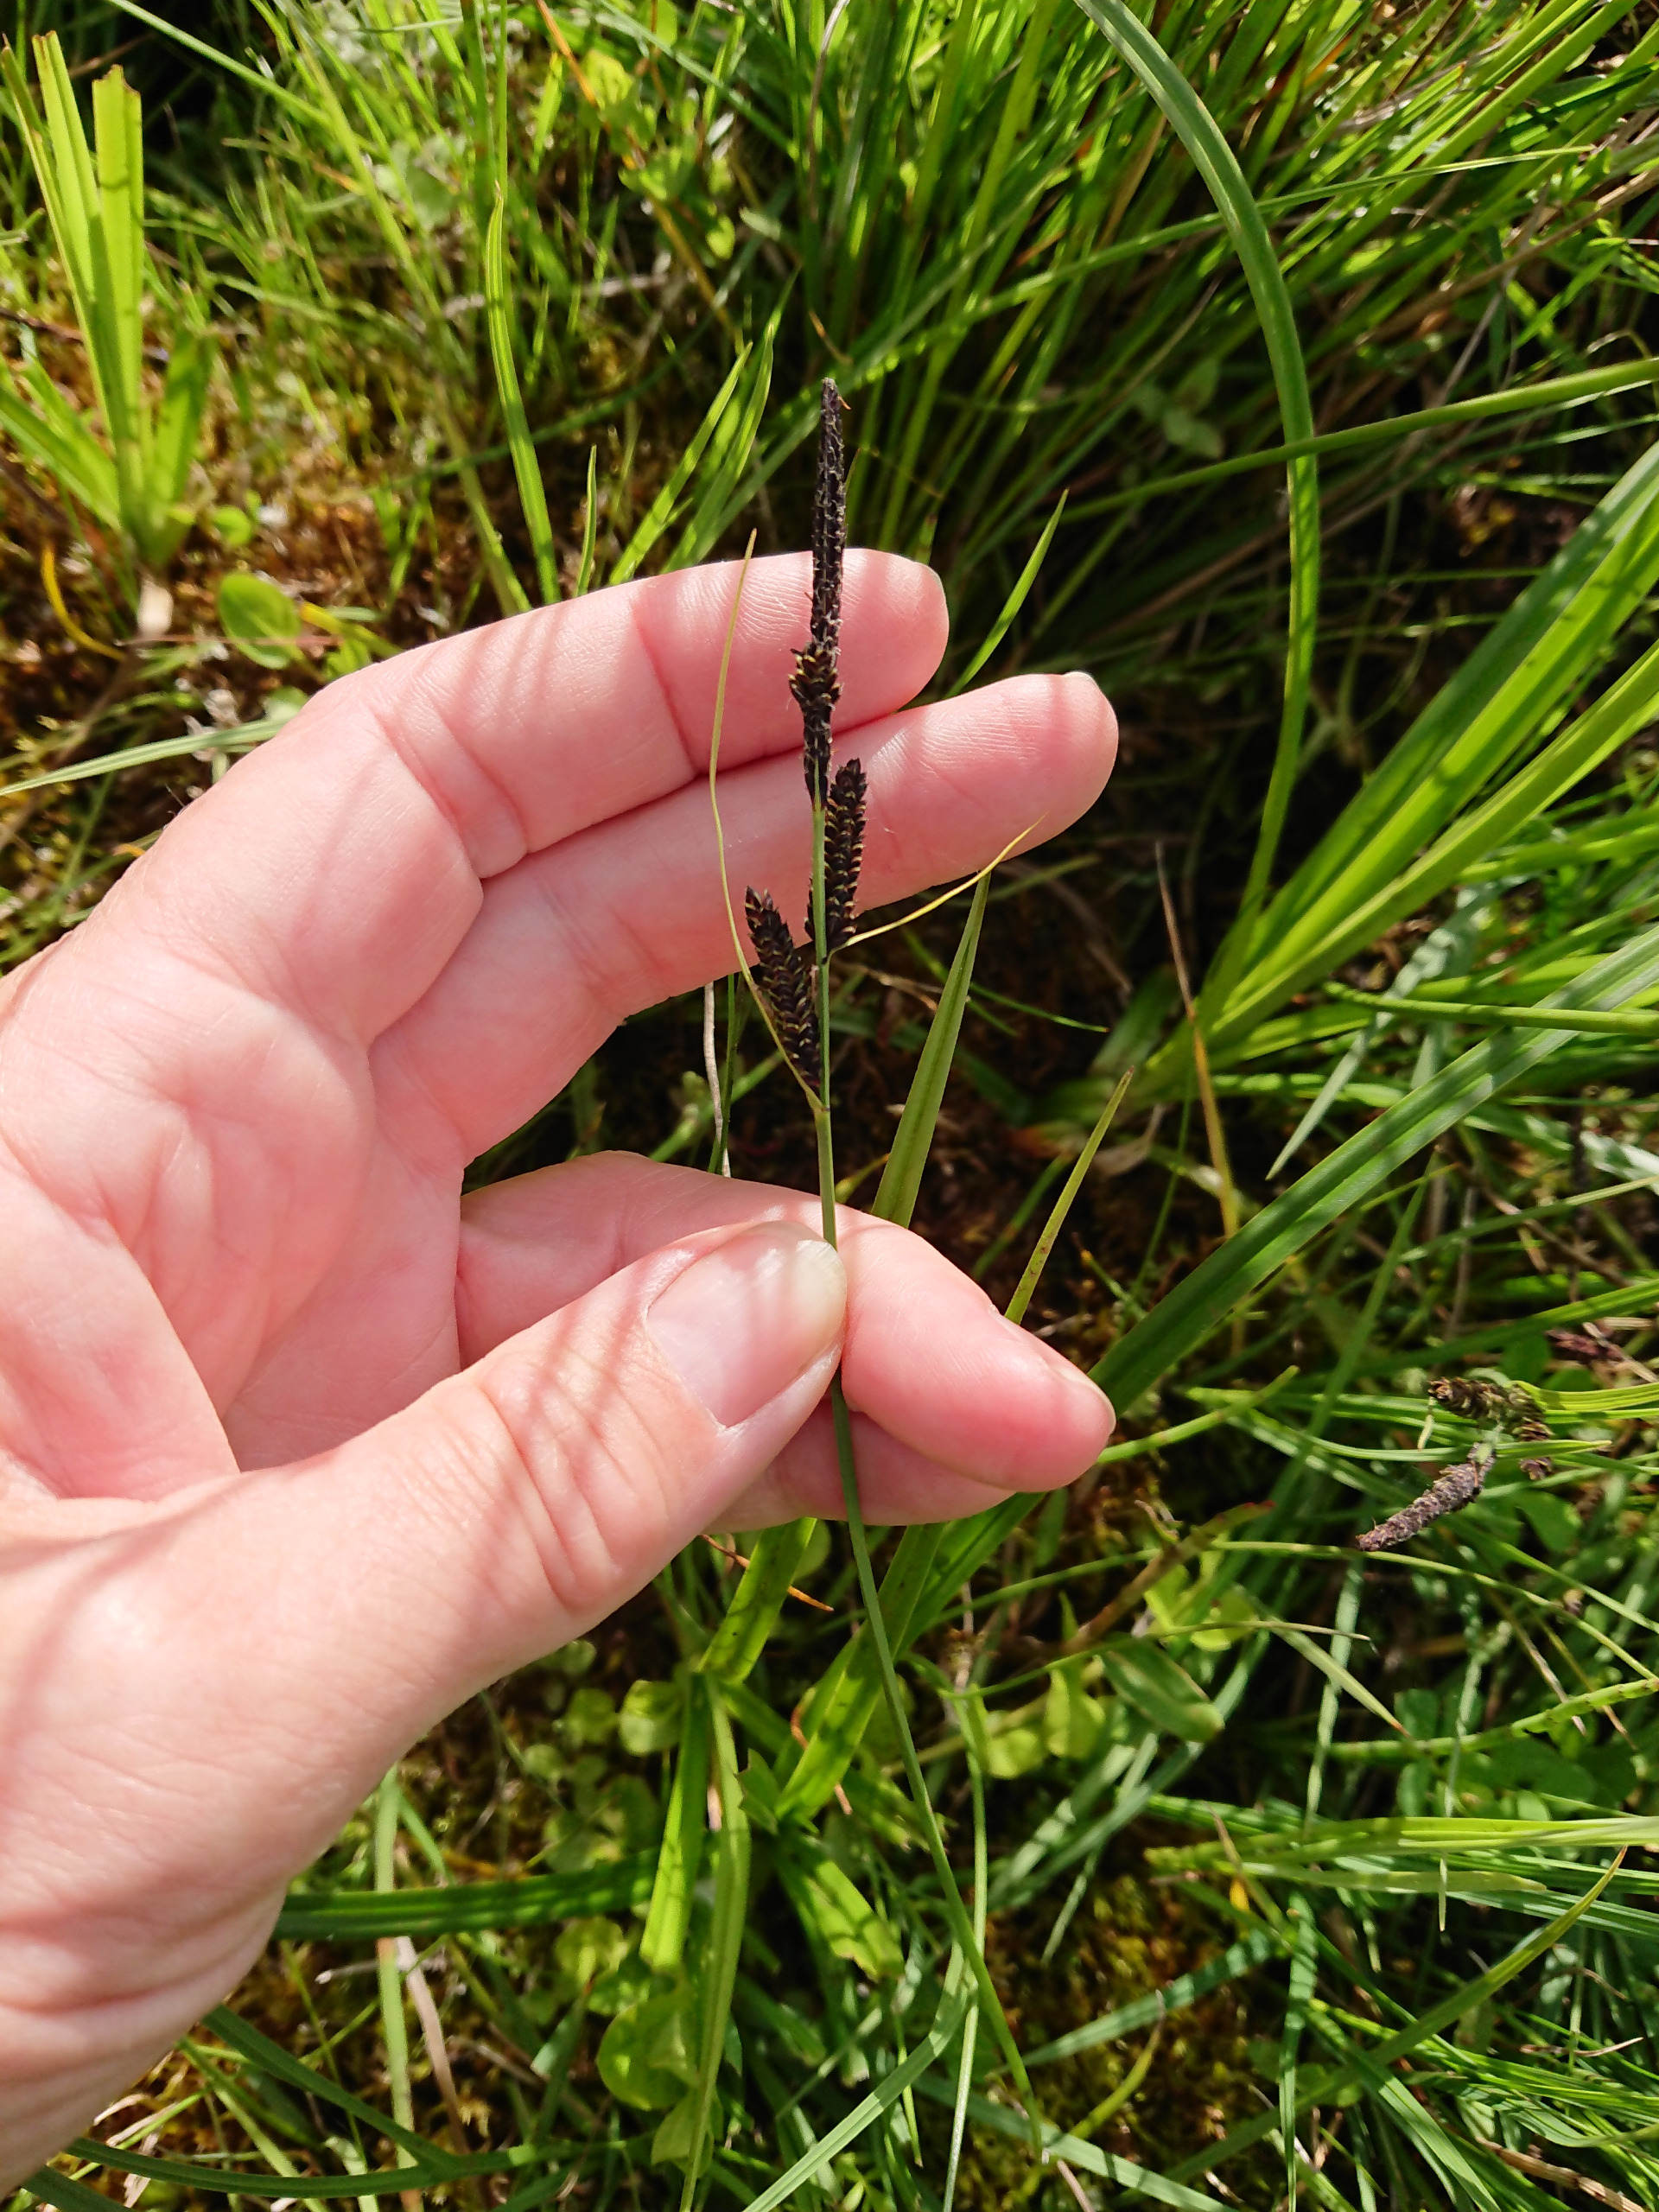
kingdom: Plantae
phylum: Tracheophyta
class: Liliopsida
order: Poales
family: Cyperaceae
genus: Carex
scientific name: Carex nigra
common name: Almindelig star
